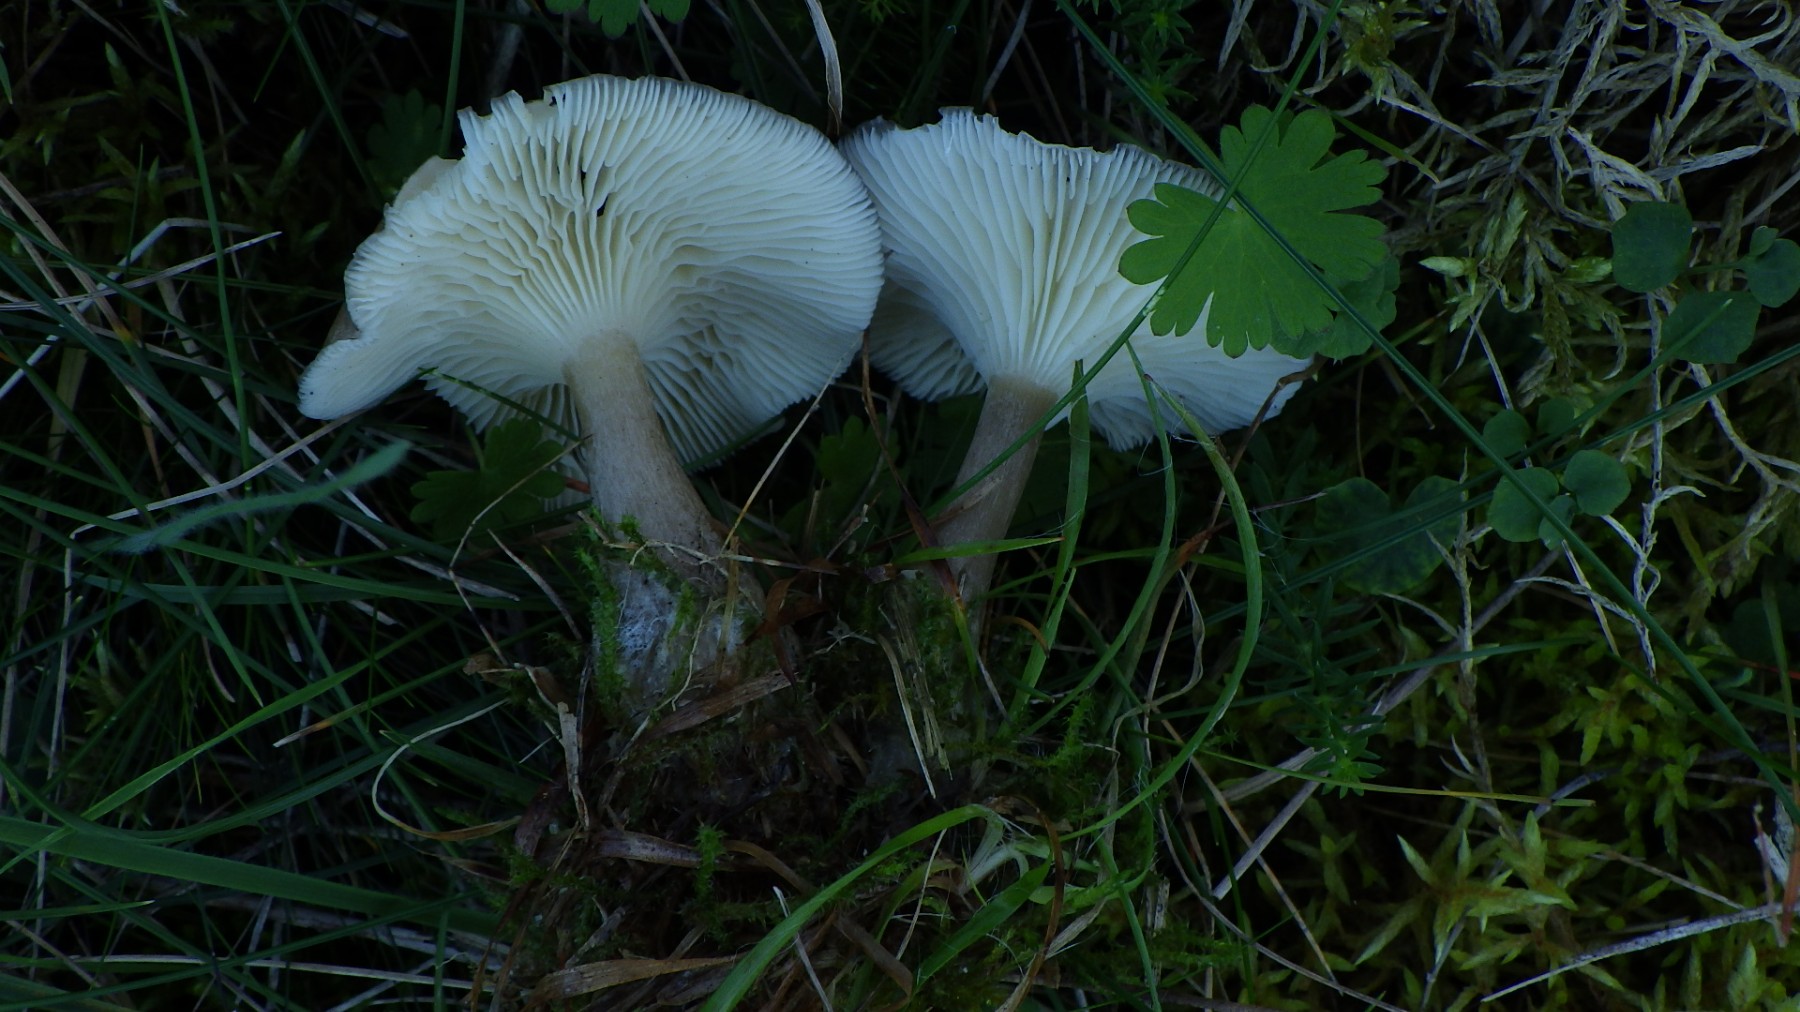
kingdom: Fungi
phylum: Basidiomycota
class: Agaricomycetes
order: Agaricales
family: Hygrophoraceae
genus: Ampulloclitocybe
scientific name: Ampulloclitocybe clavipes
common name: køllefod
